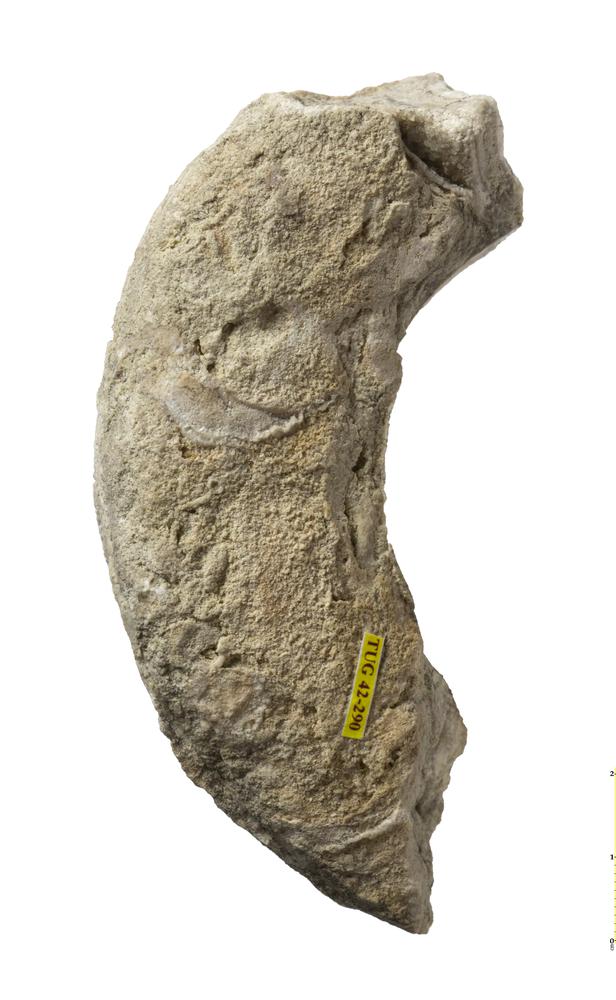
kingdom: Animalia
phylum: Mollusca
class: Cephalopoda
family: Trocholitidae
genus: Discoceras
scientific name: Discoceras
